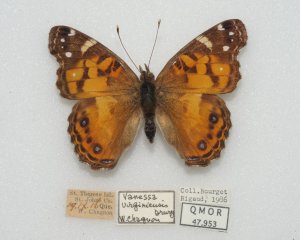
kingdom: Animalia
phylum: Arthropoda
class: Insecta
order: Lepidoptera
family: Nymphalidae
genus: Vanessa
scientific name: Vanessa virginiensis
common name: American Lady
